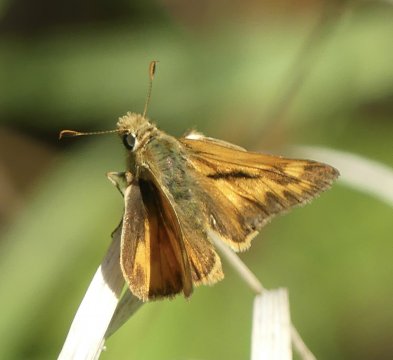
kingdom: Animalia
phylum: Arthropoda
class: Insecta
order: Lepidoptera
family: Hesperiidae
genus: Ochlodes
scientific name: Ochlodes sylvanoides
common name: Woodland Skipper
